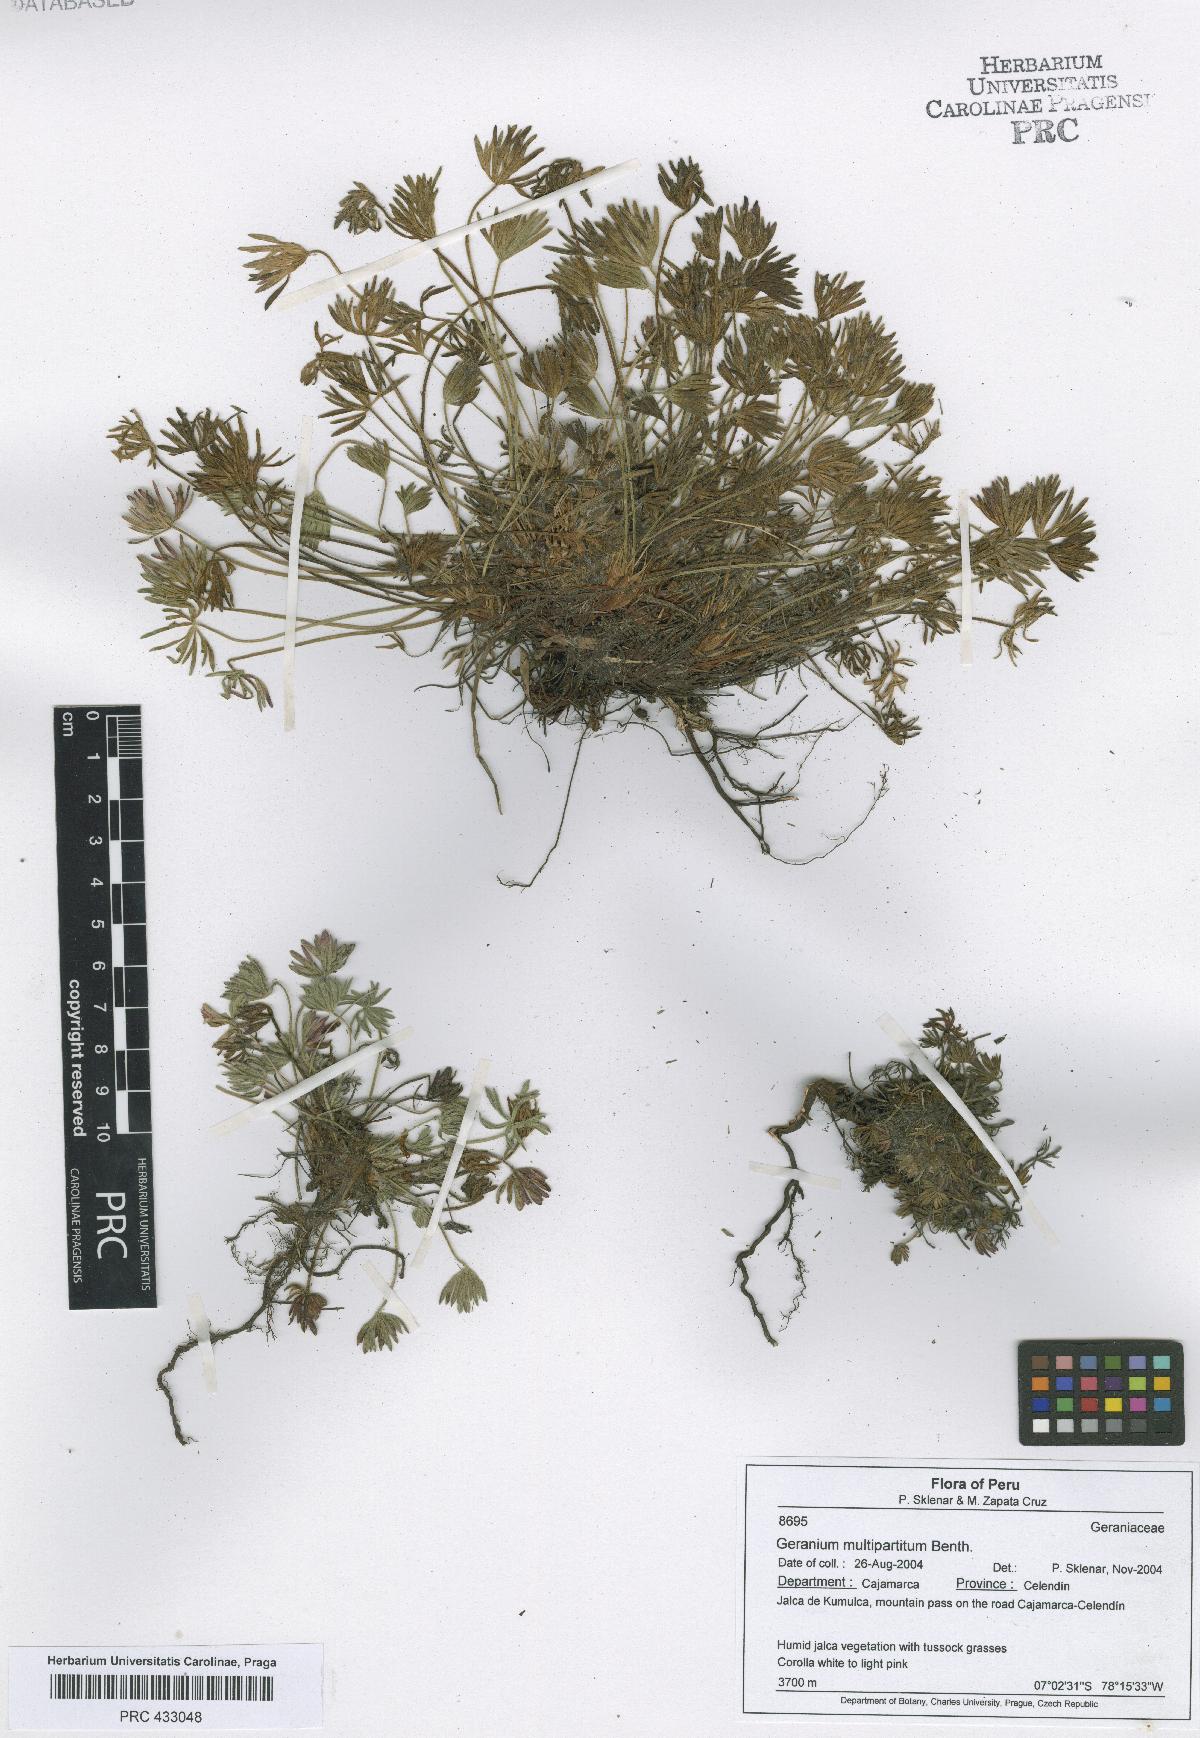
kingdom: Plantae
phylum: Tracheophyta
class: Magnoliopsida
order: Geraniales
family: Geraniaceae
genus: Geranium
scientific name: Geranium multipartitum
